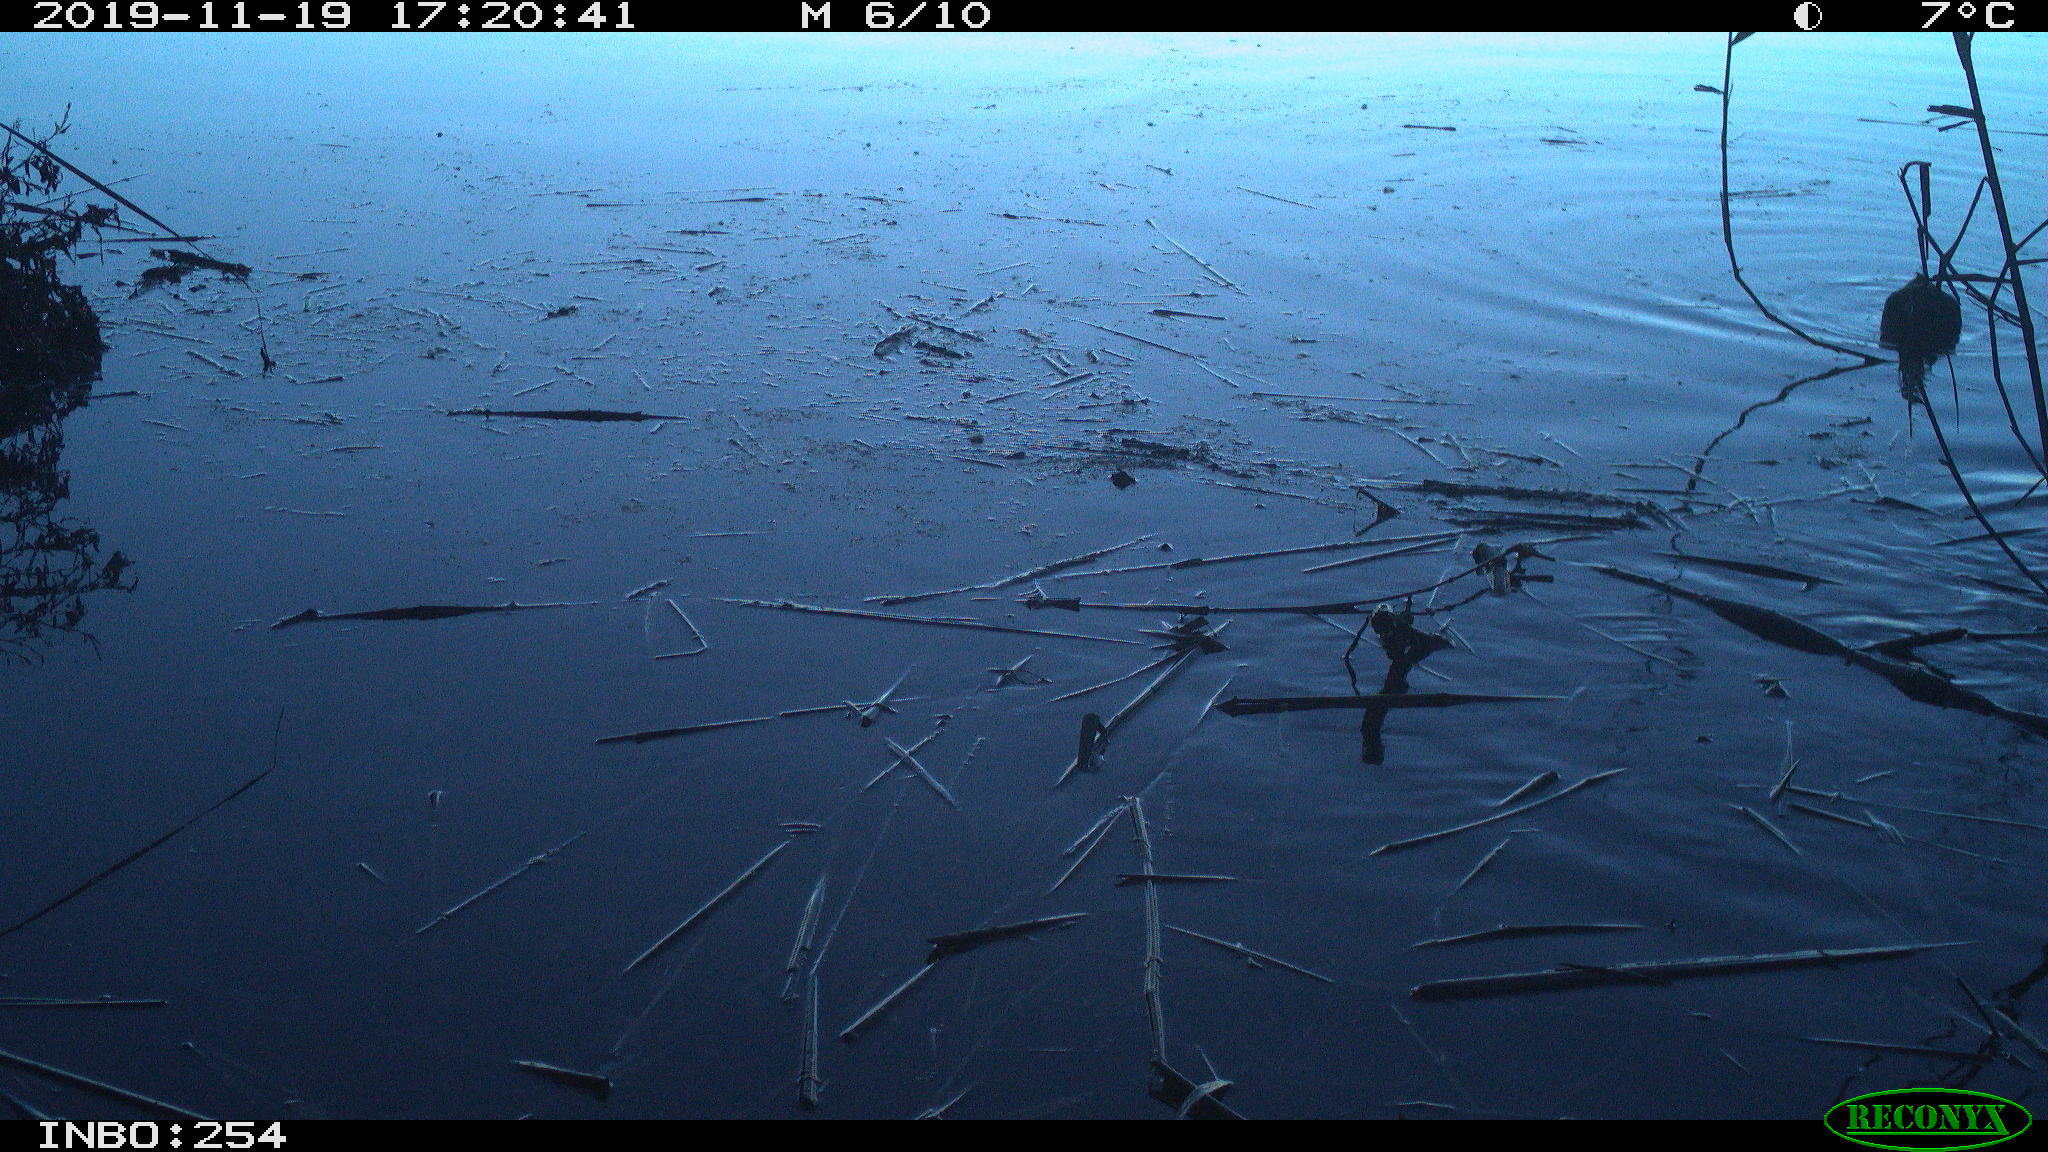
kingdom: Animalia
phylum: Chordata
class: Aves
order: Gruiformes
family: Rallidae
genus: Gallinula
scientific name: Gallinula chloropus
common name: Common moorhen
